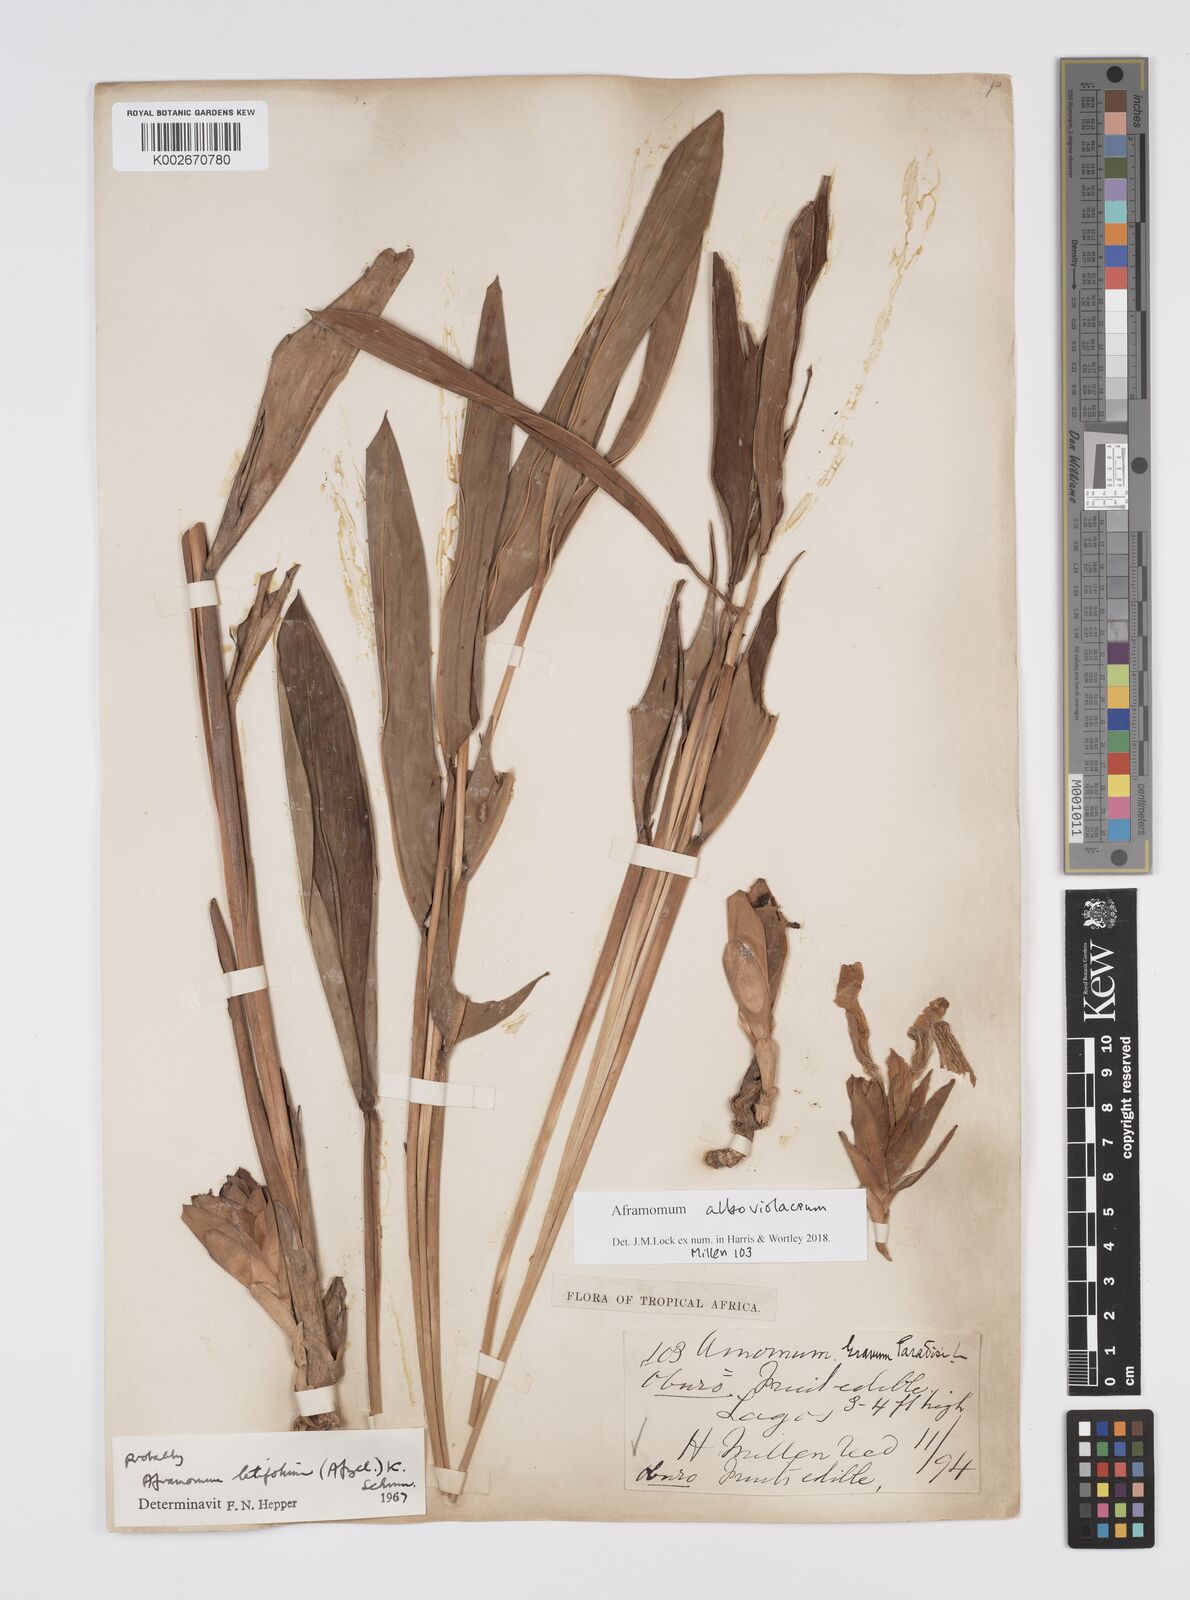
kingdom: Plantae
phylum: Tracheophyta
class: Liliopsida
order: Zingiberales
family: Zingiberaceae
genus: Aframomum
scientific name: Aframomum alboviolaceum
